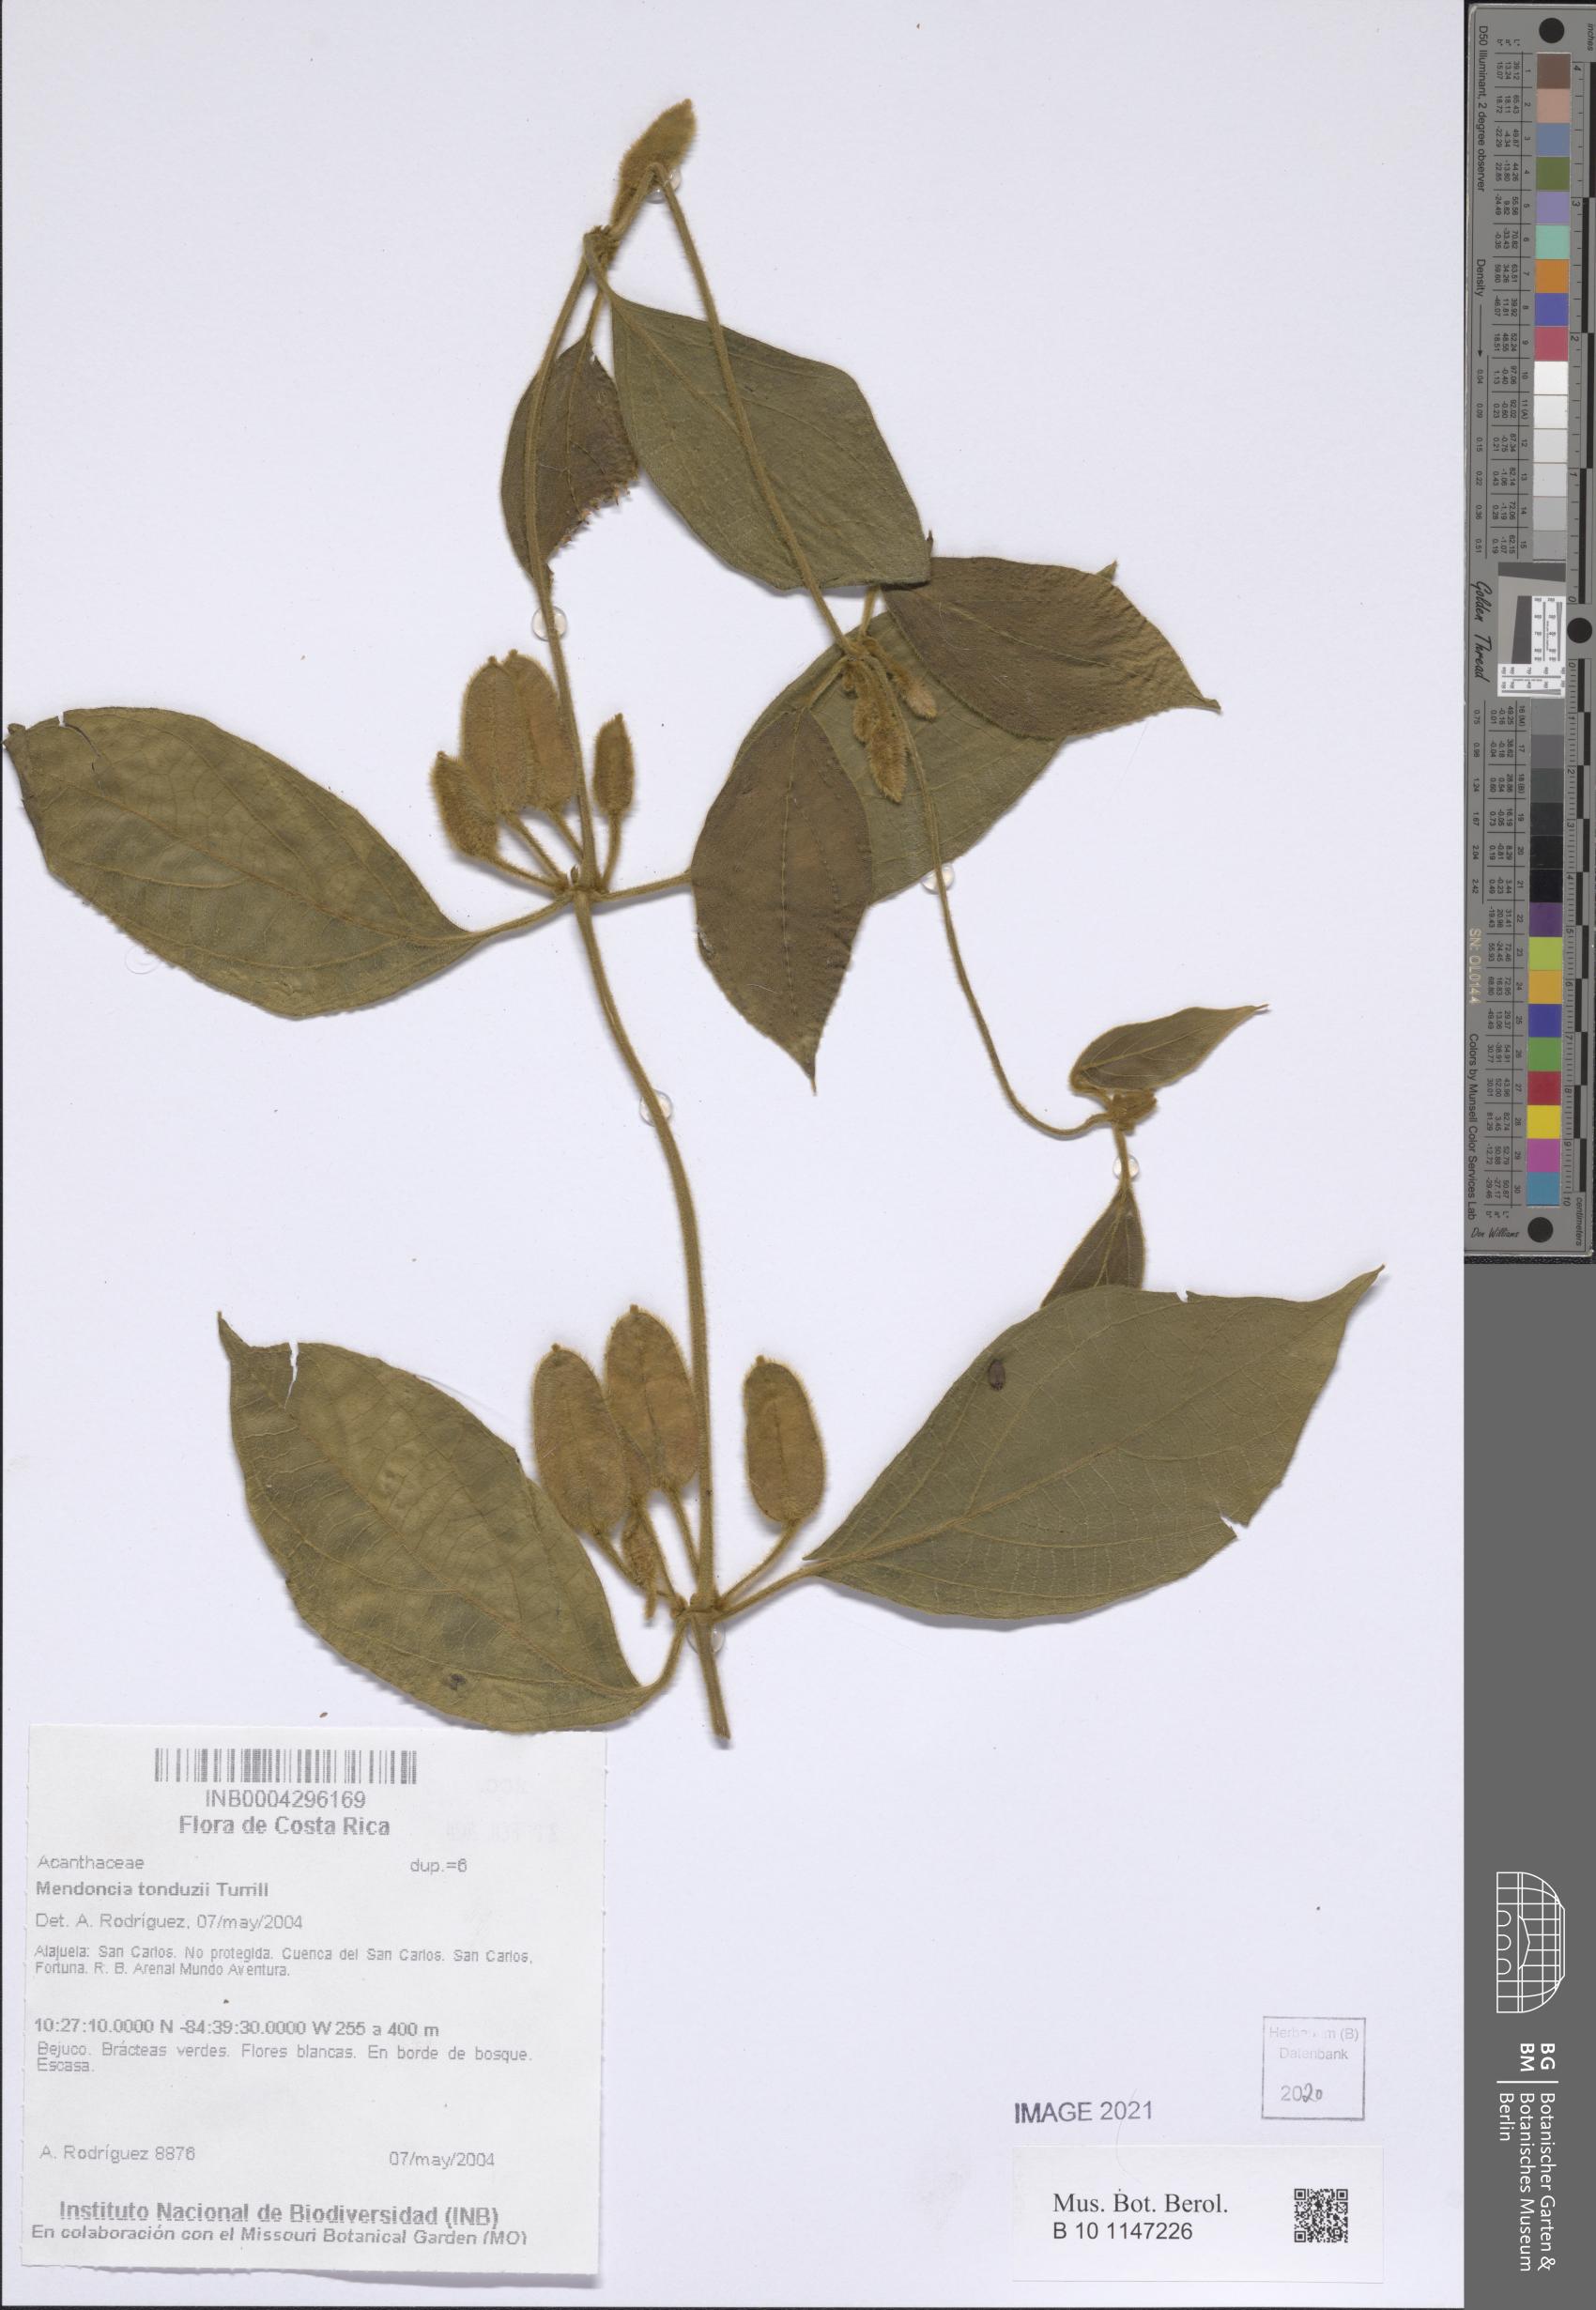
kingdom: Plantae
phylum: Tracheophyta
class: Magnoliopsida
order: Lamiales
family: Acanthaceae
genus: Mendoncia
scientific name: Mendoncia tonduzii
